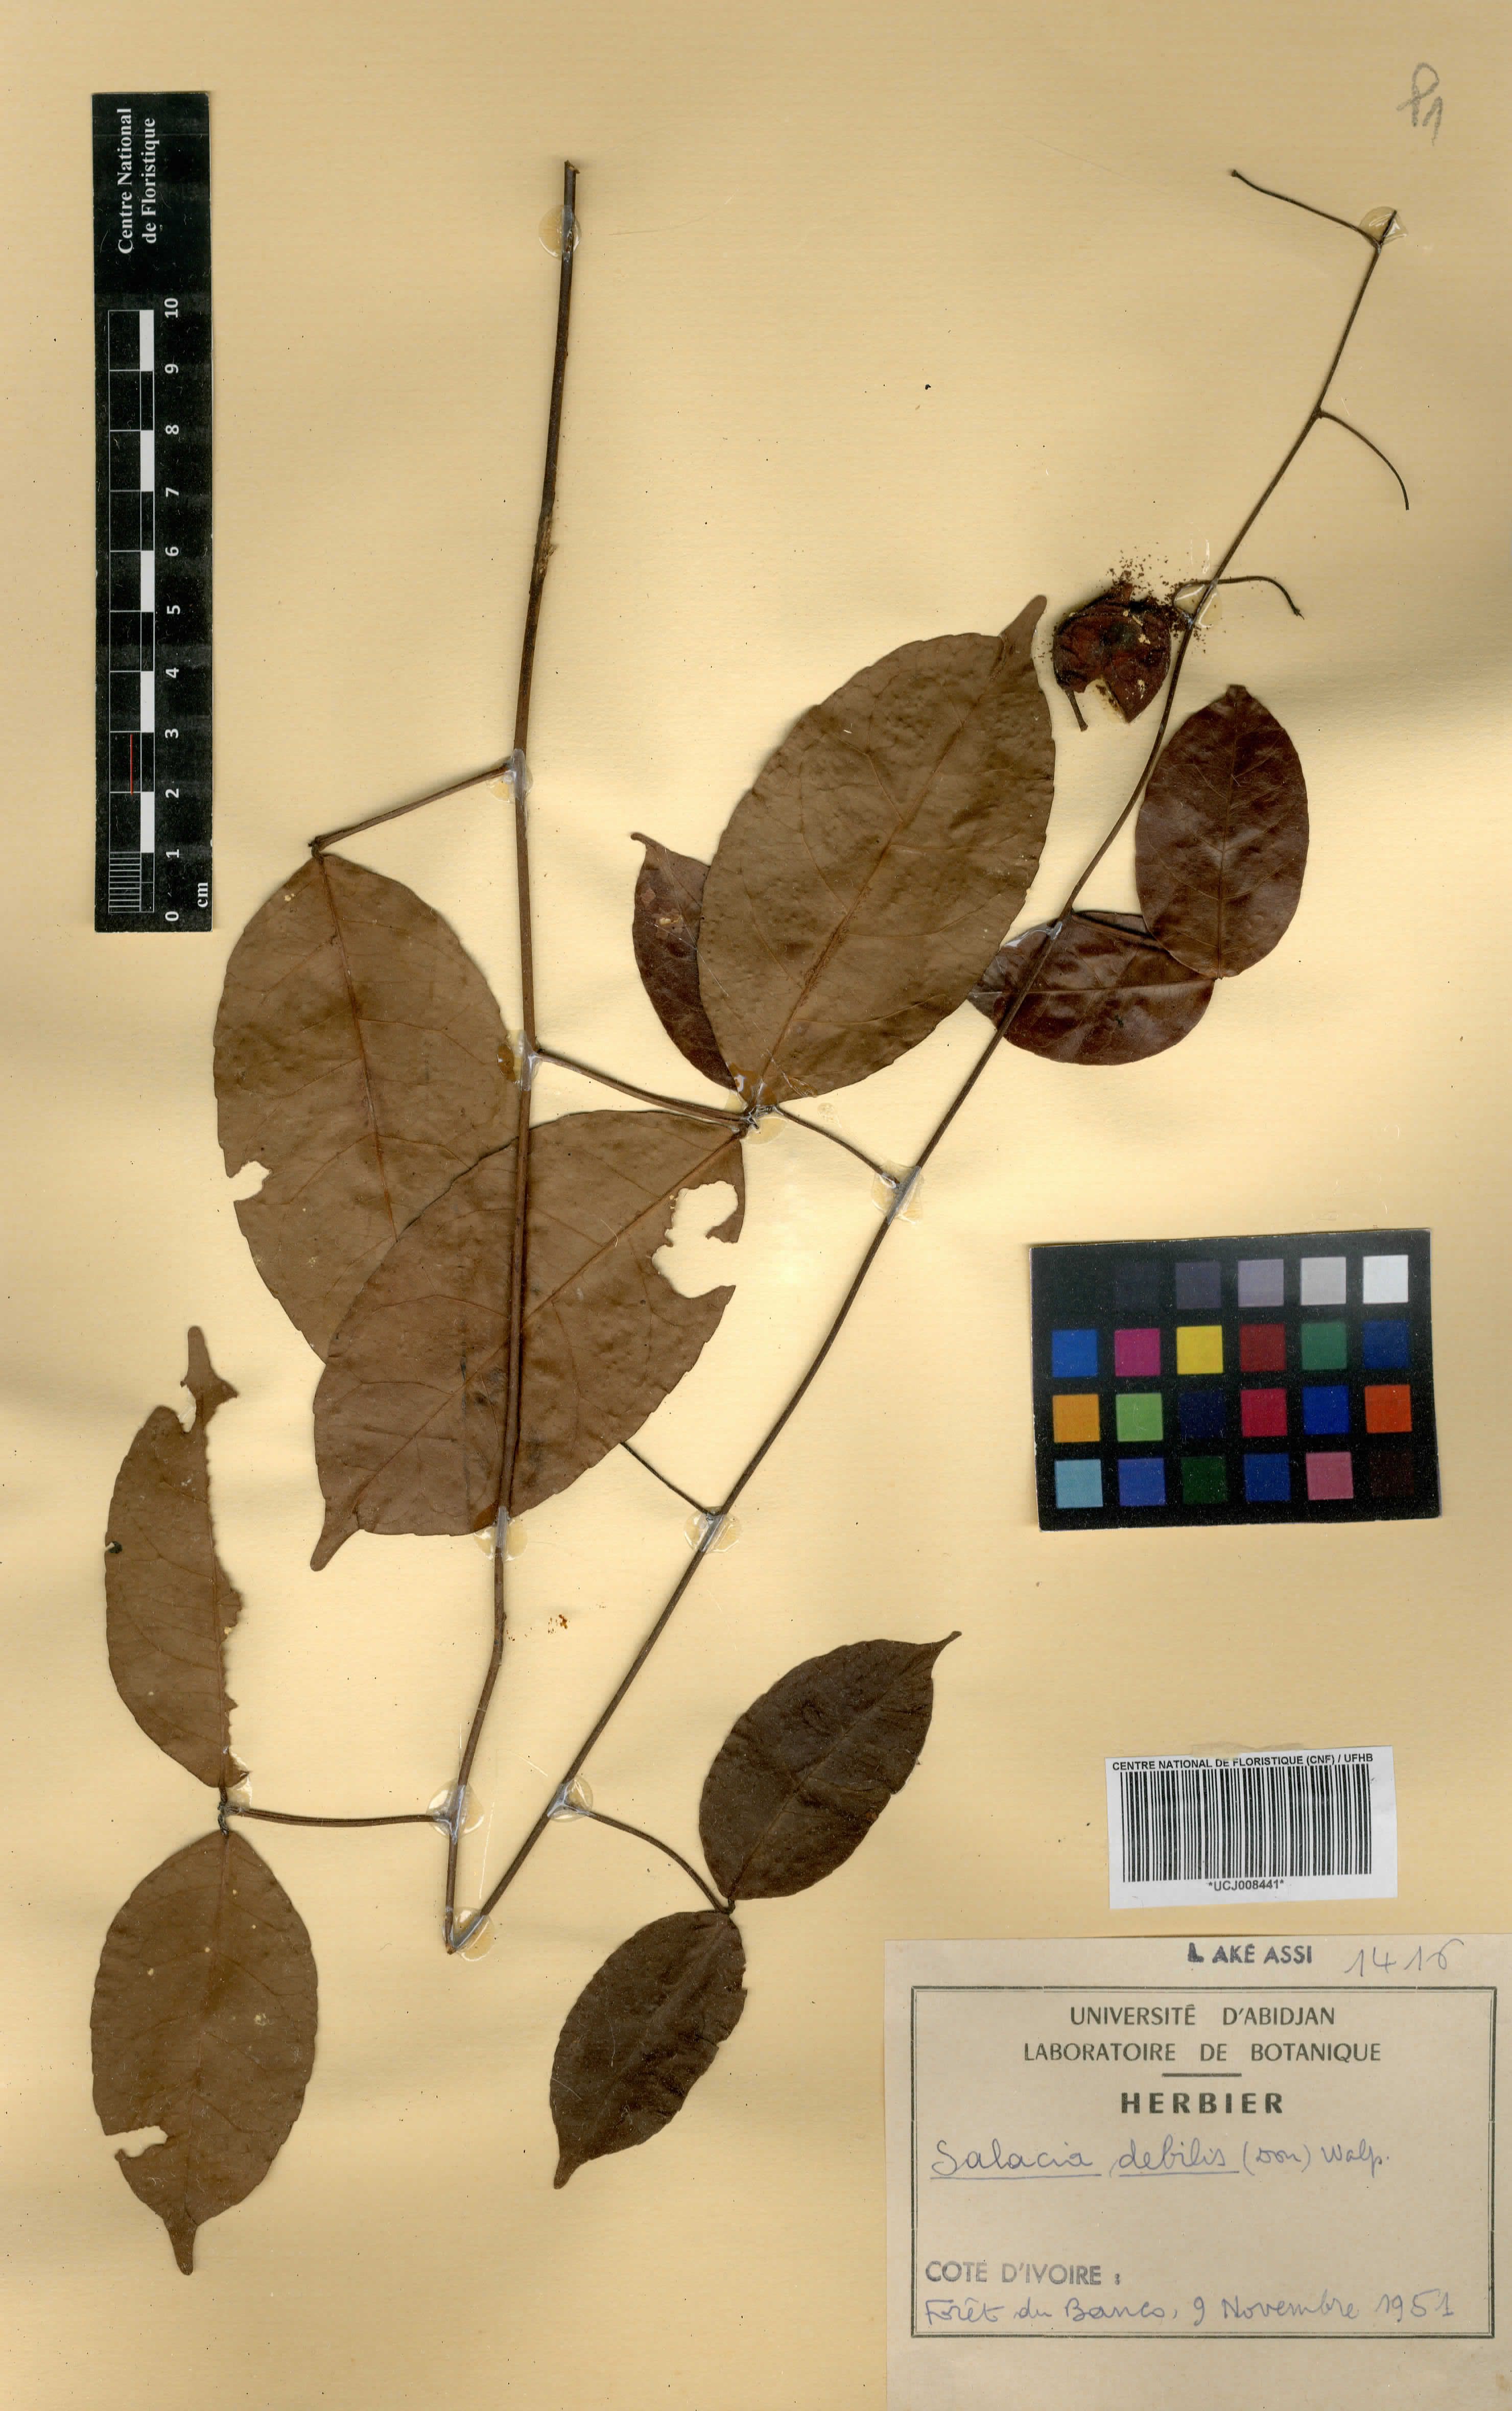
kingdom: Plantae
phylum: Tracheophyta
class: Magnoliopsida
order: Celastrales
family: Celastraceae
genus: Salacia
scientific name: Salacia debilis
